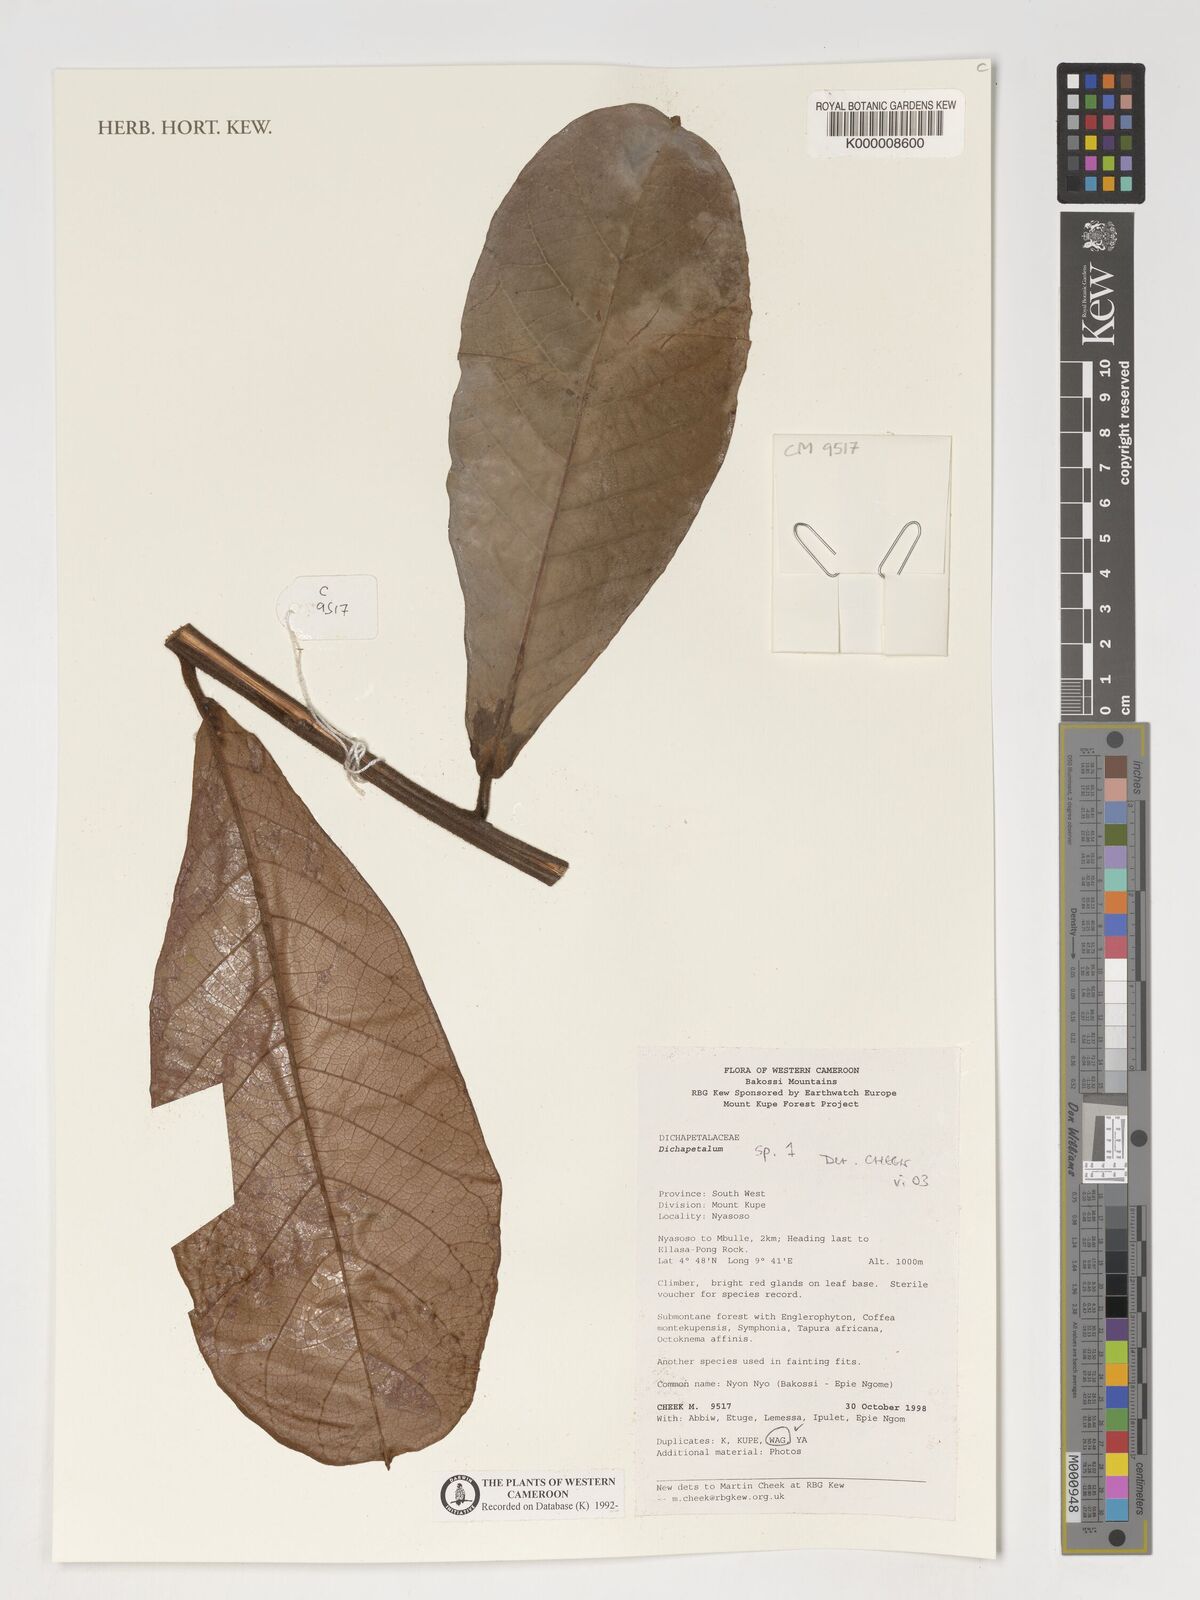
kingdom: Plantae
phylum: Tracheophyta
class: Magnoliopsida
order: Malpighiales
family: Dichapetalaceae
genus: Dichapetalum
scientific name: Dichapetalum
